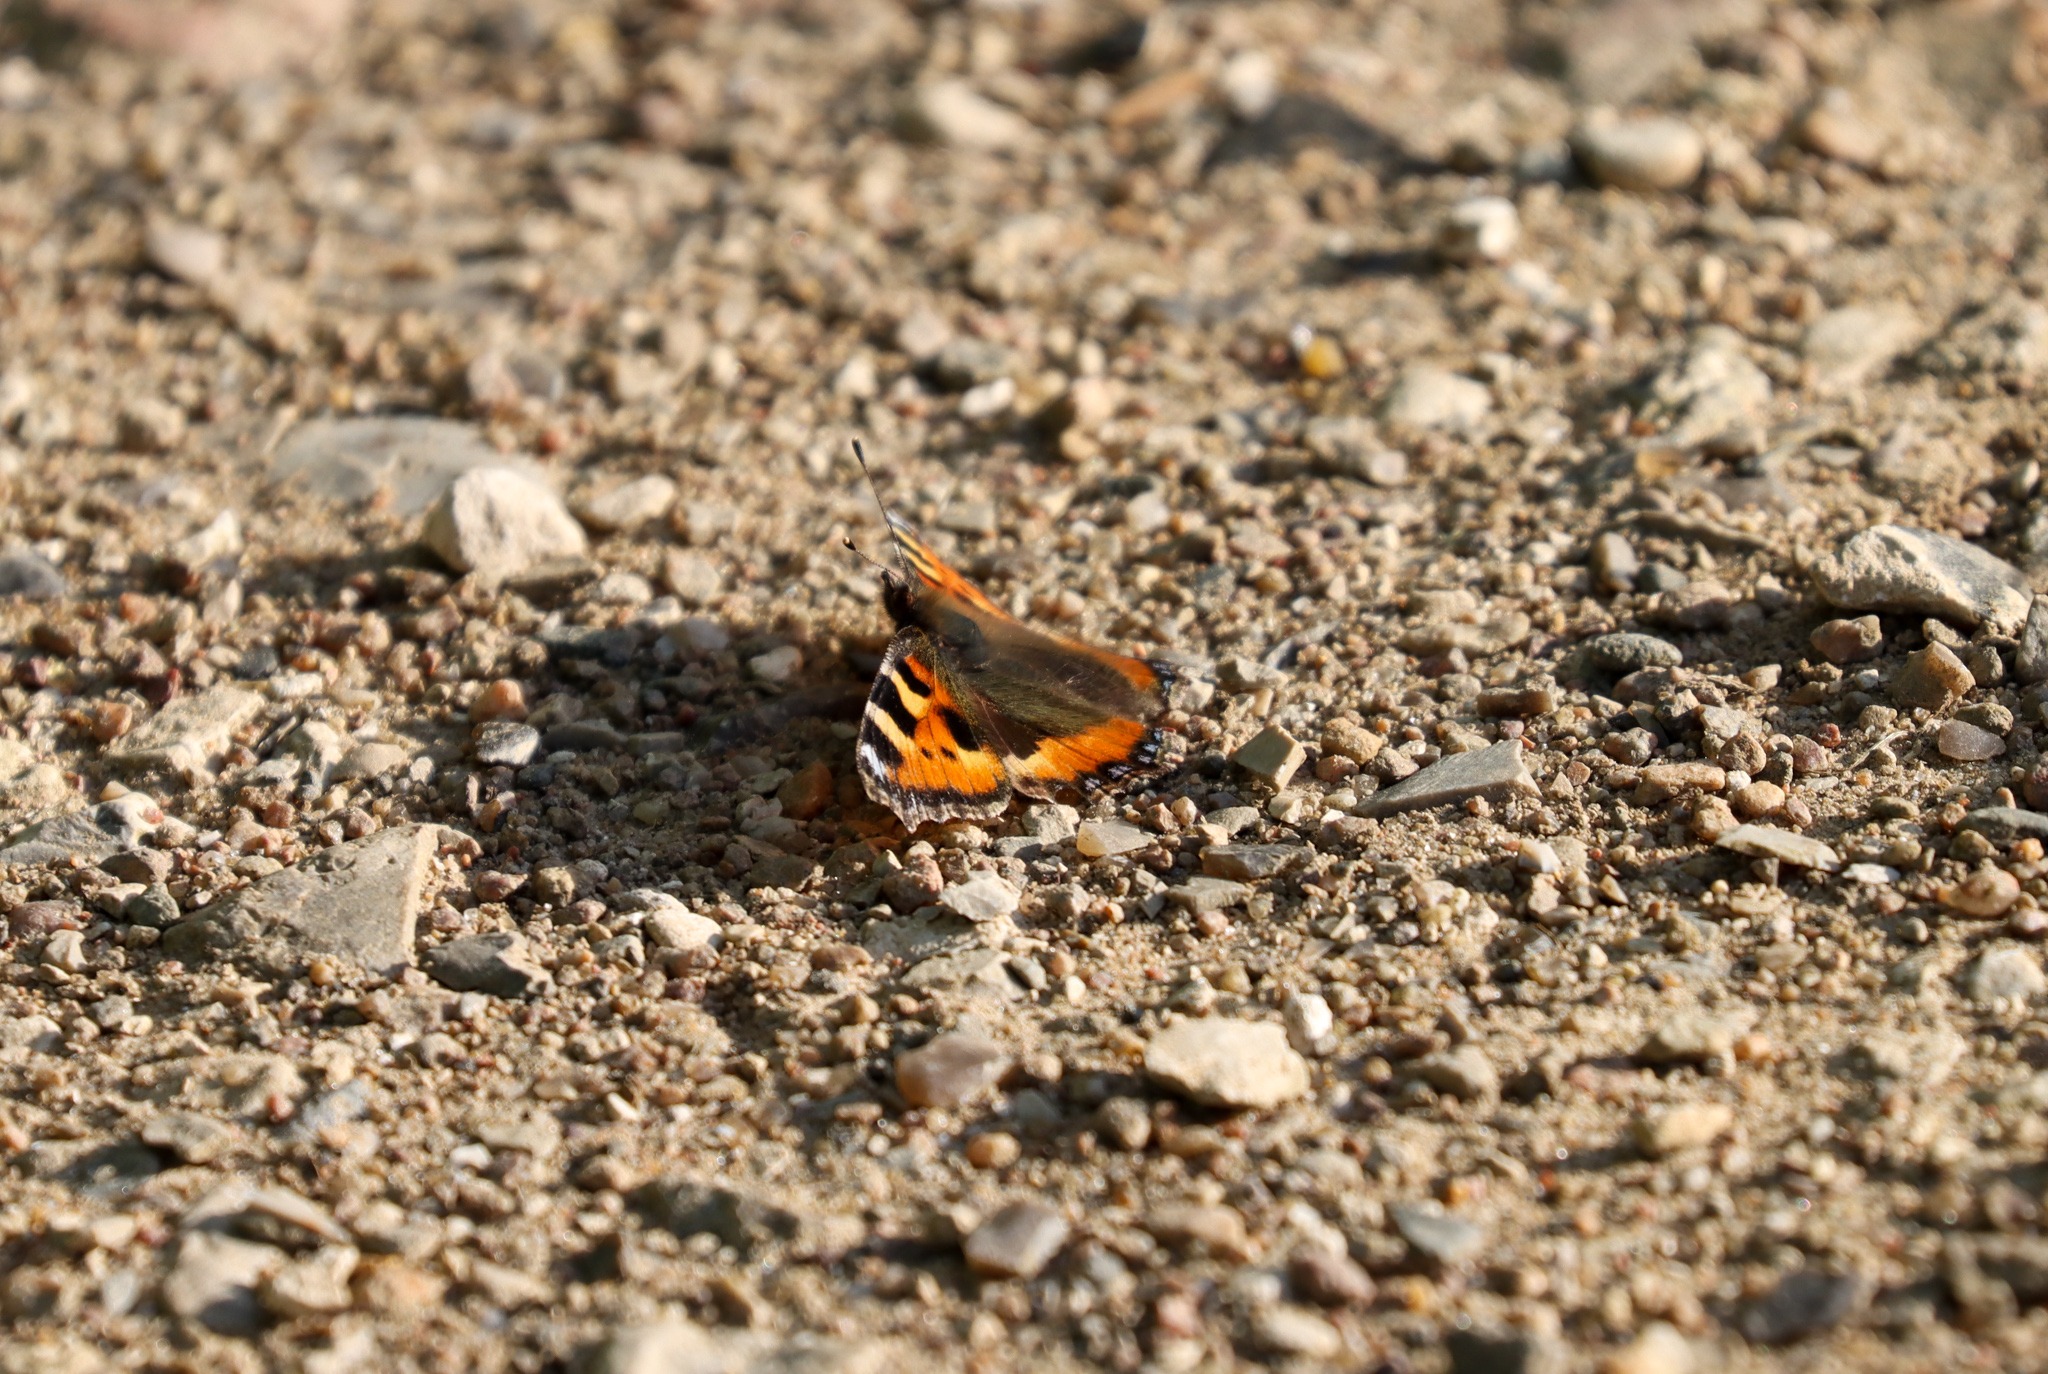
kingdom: Animalia
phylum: Arthropoda
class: Insecta
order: Lepidoptera
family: Nymphalidae
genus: Aglais
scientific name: Aglais urticae
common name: Nældens takvinge
